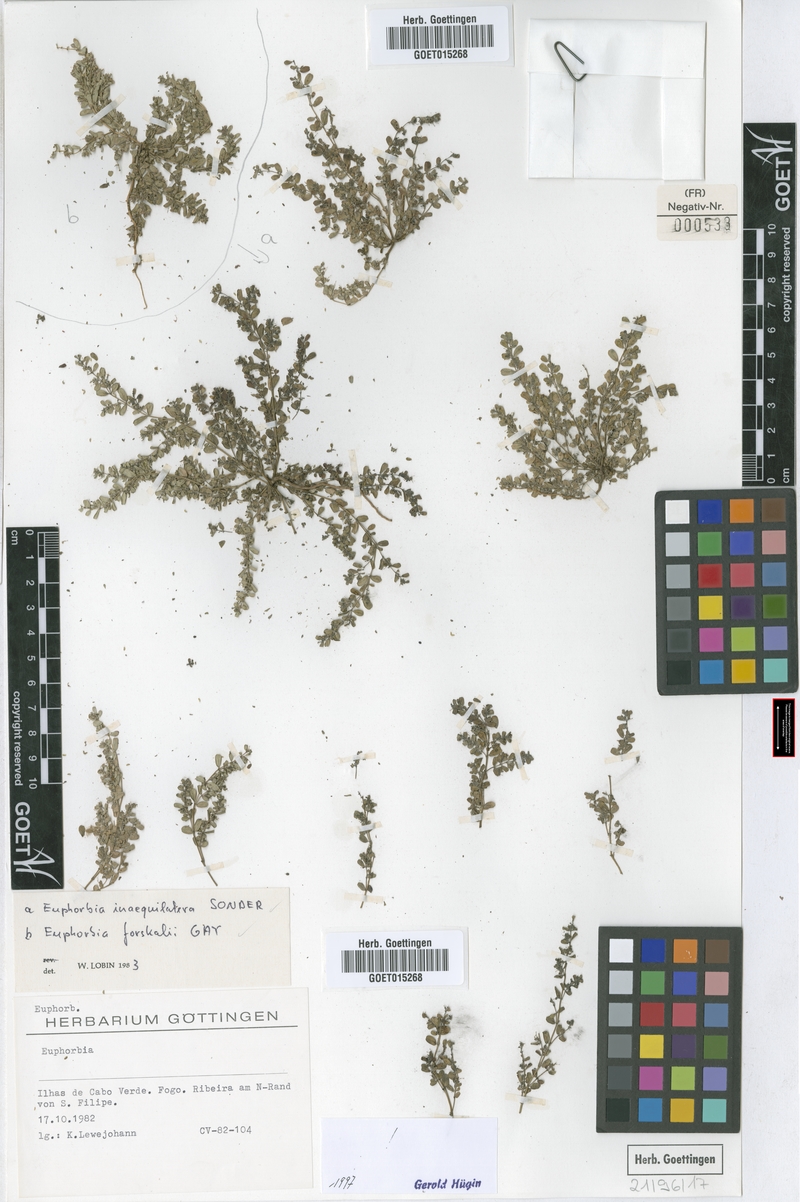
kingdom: Plantae
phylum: Tracheophyta
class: Magnoliopsida
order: Malpighiales
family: Euphorbiaceae
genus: Euphorbia
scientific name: Euphorbia forsskalii
